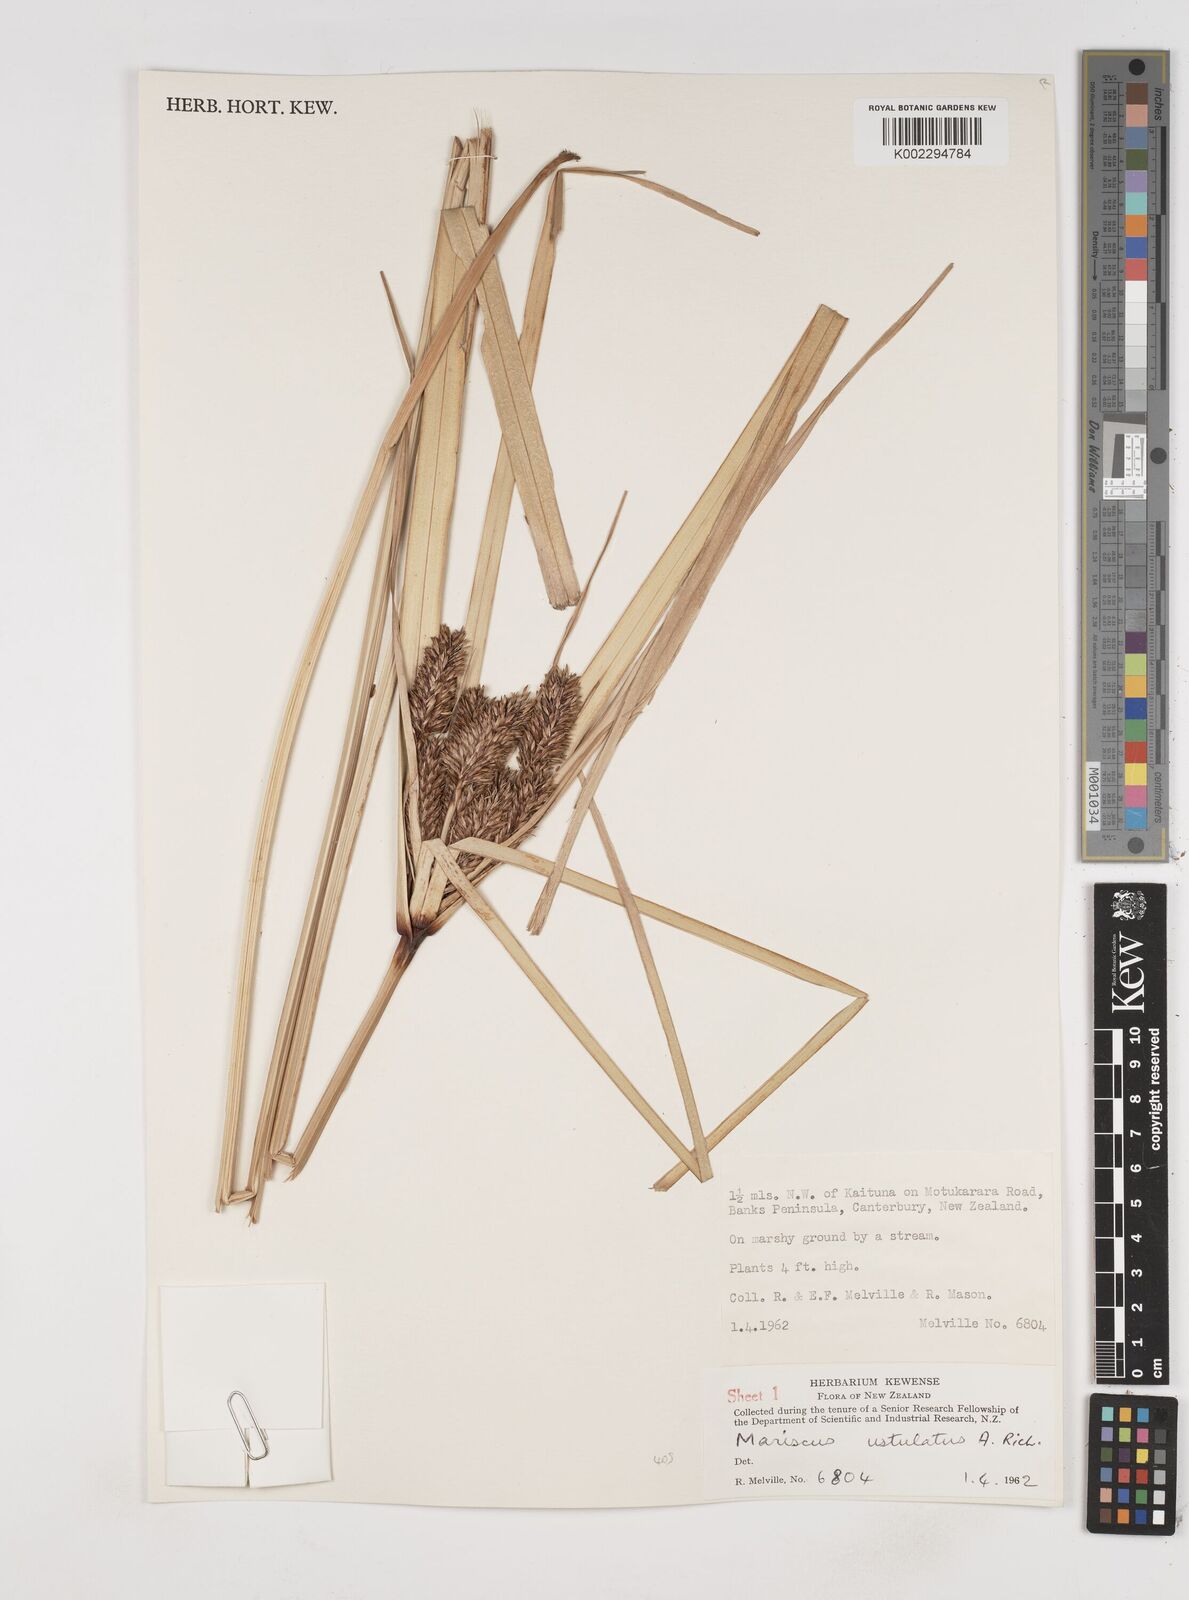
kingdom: Plantae
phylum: Tracheophyta
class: Liliopsida
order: Poales
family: Cyperaceae
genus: Cyperus
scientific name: Cyperus ustulatus
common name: Giant umbrella-sedge
